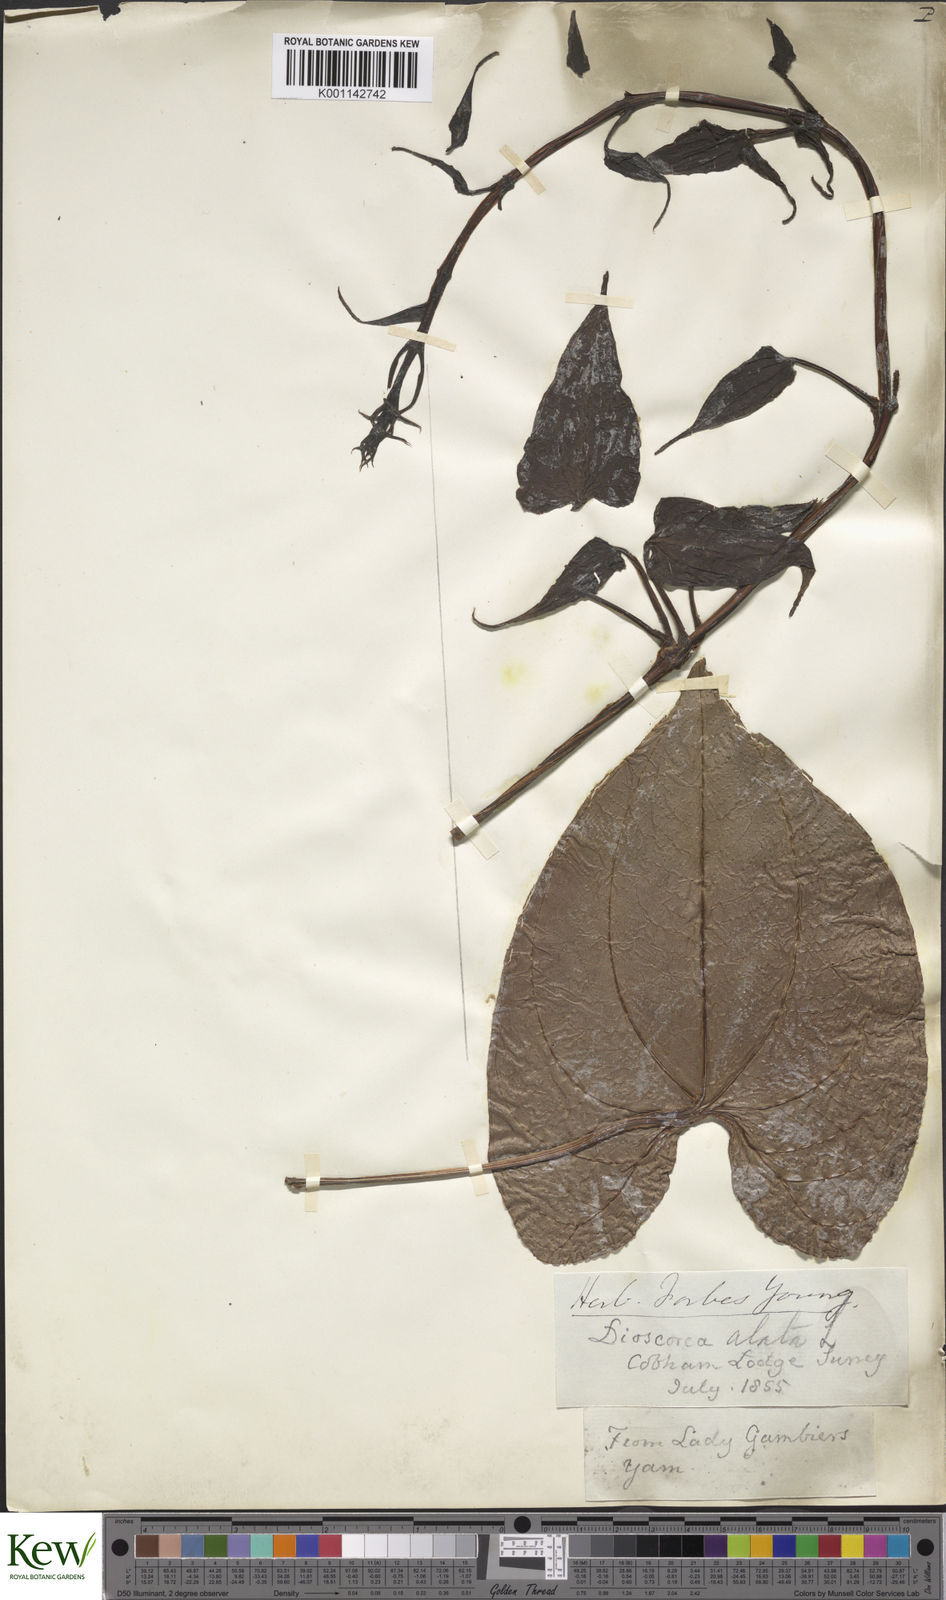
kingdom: Plantae
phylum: Tracheophyta
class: Liliopsida
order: Dioscoreales
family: Dioscoreaceae
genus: Dioscorea
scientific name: Dioscorea alata
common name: Water yam
